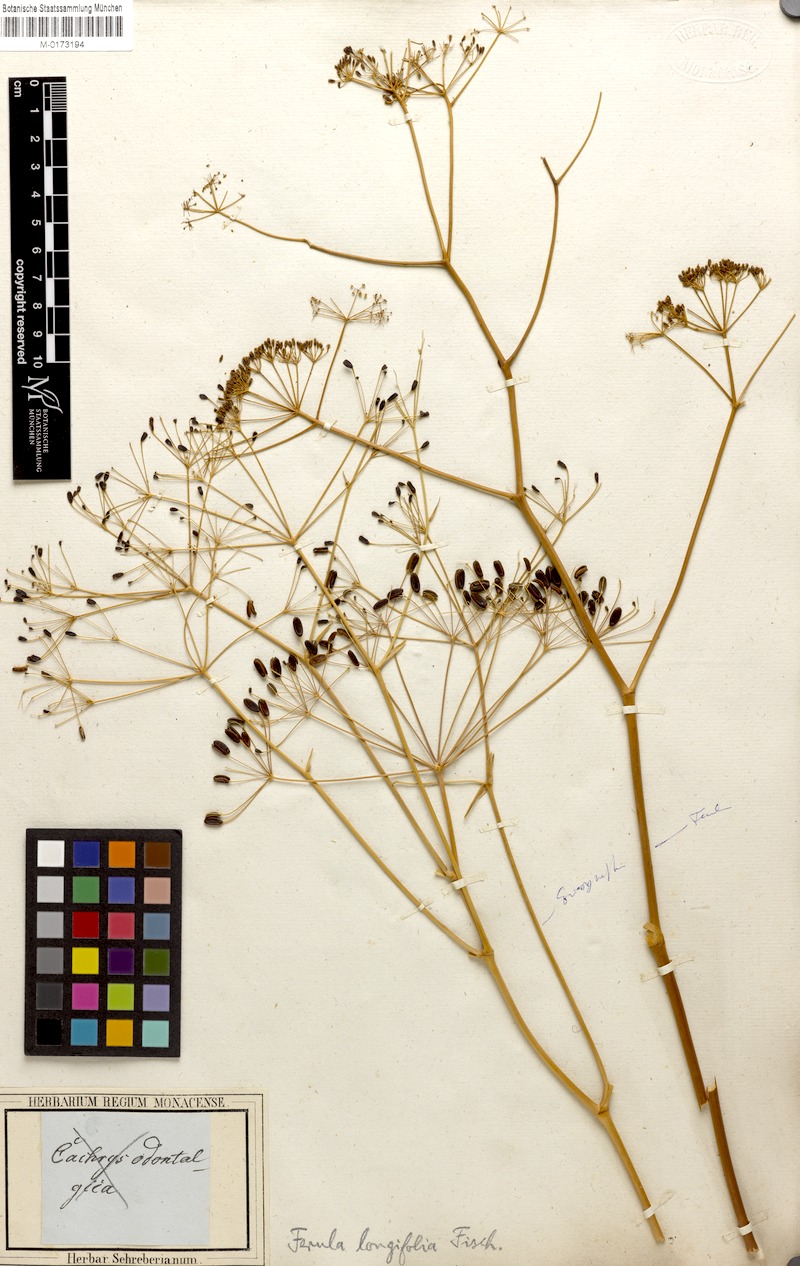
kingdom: Plantae
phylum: Tracheophyta
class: Magnoliopsida
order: Apiales
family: Apiaceae
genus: Eriosynaphe
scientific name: Eriosynaphe longifolia
